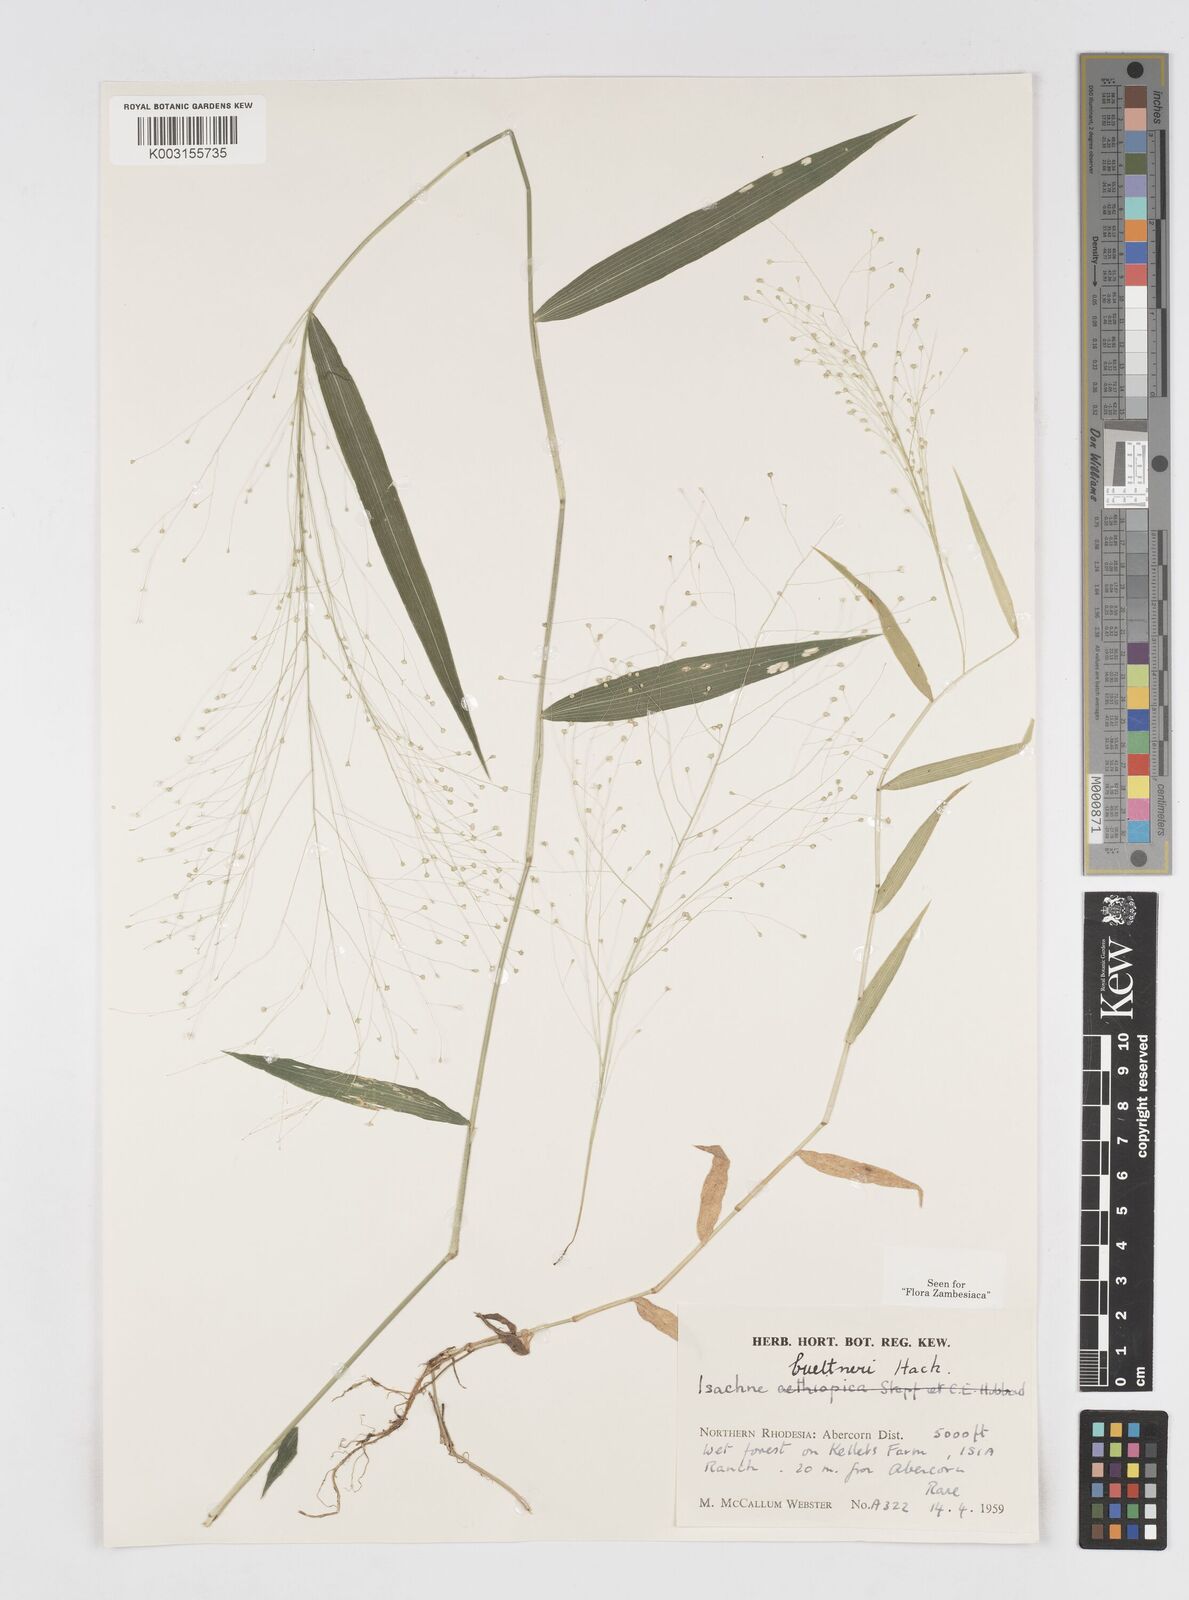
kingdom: Plantae
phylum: Tracheophyta
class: Liliopsida
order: Poales
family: Poaceae
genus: Isachne
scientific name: Isachne albens
